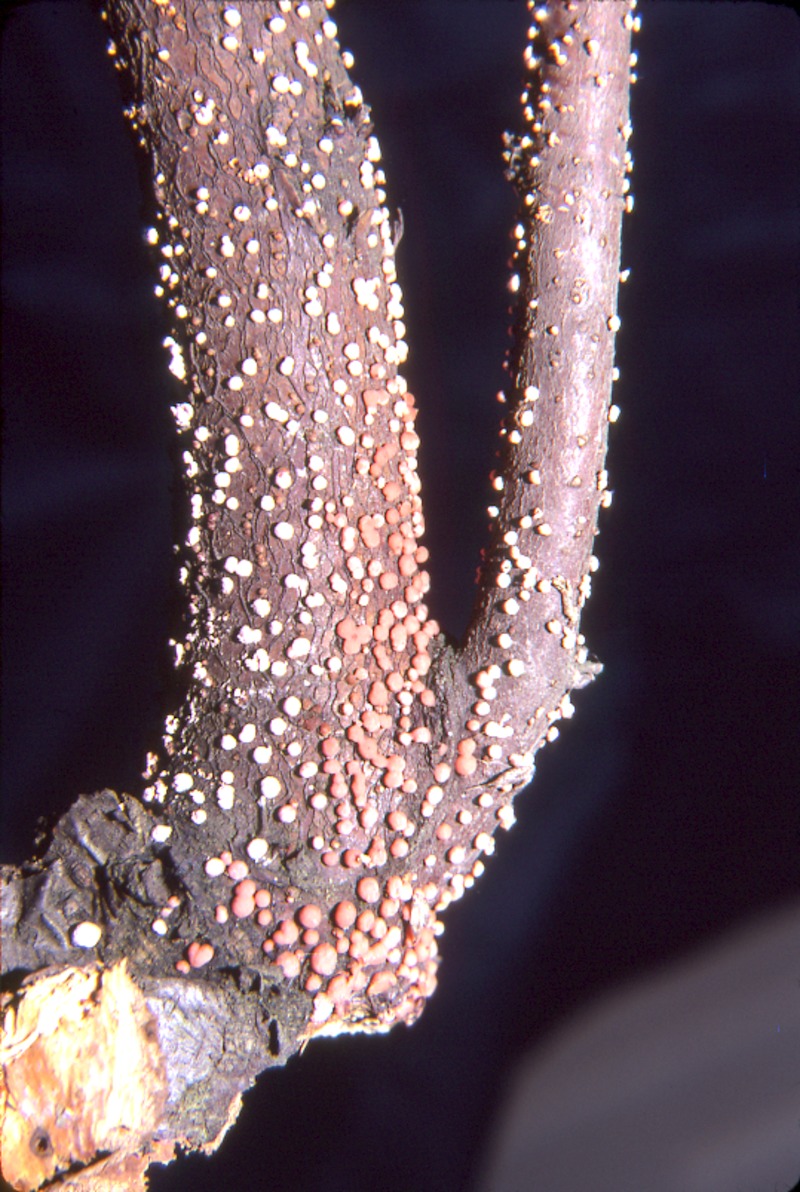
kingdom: Fungi
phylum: Ascomycota
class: Sordariomycetes
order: Hypocreales
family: Nectriaceae
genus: Nectria
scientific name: Nectria cinnabarina
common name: Coral spot
